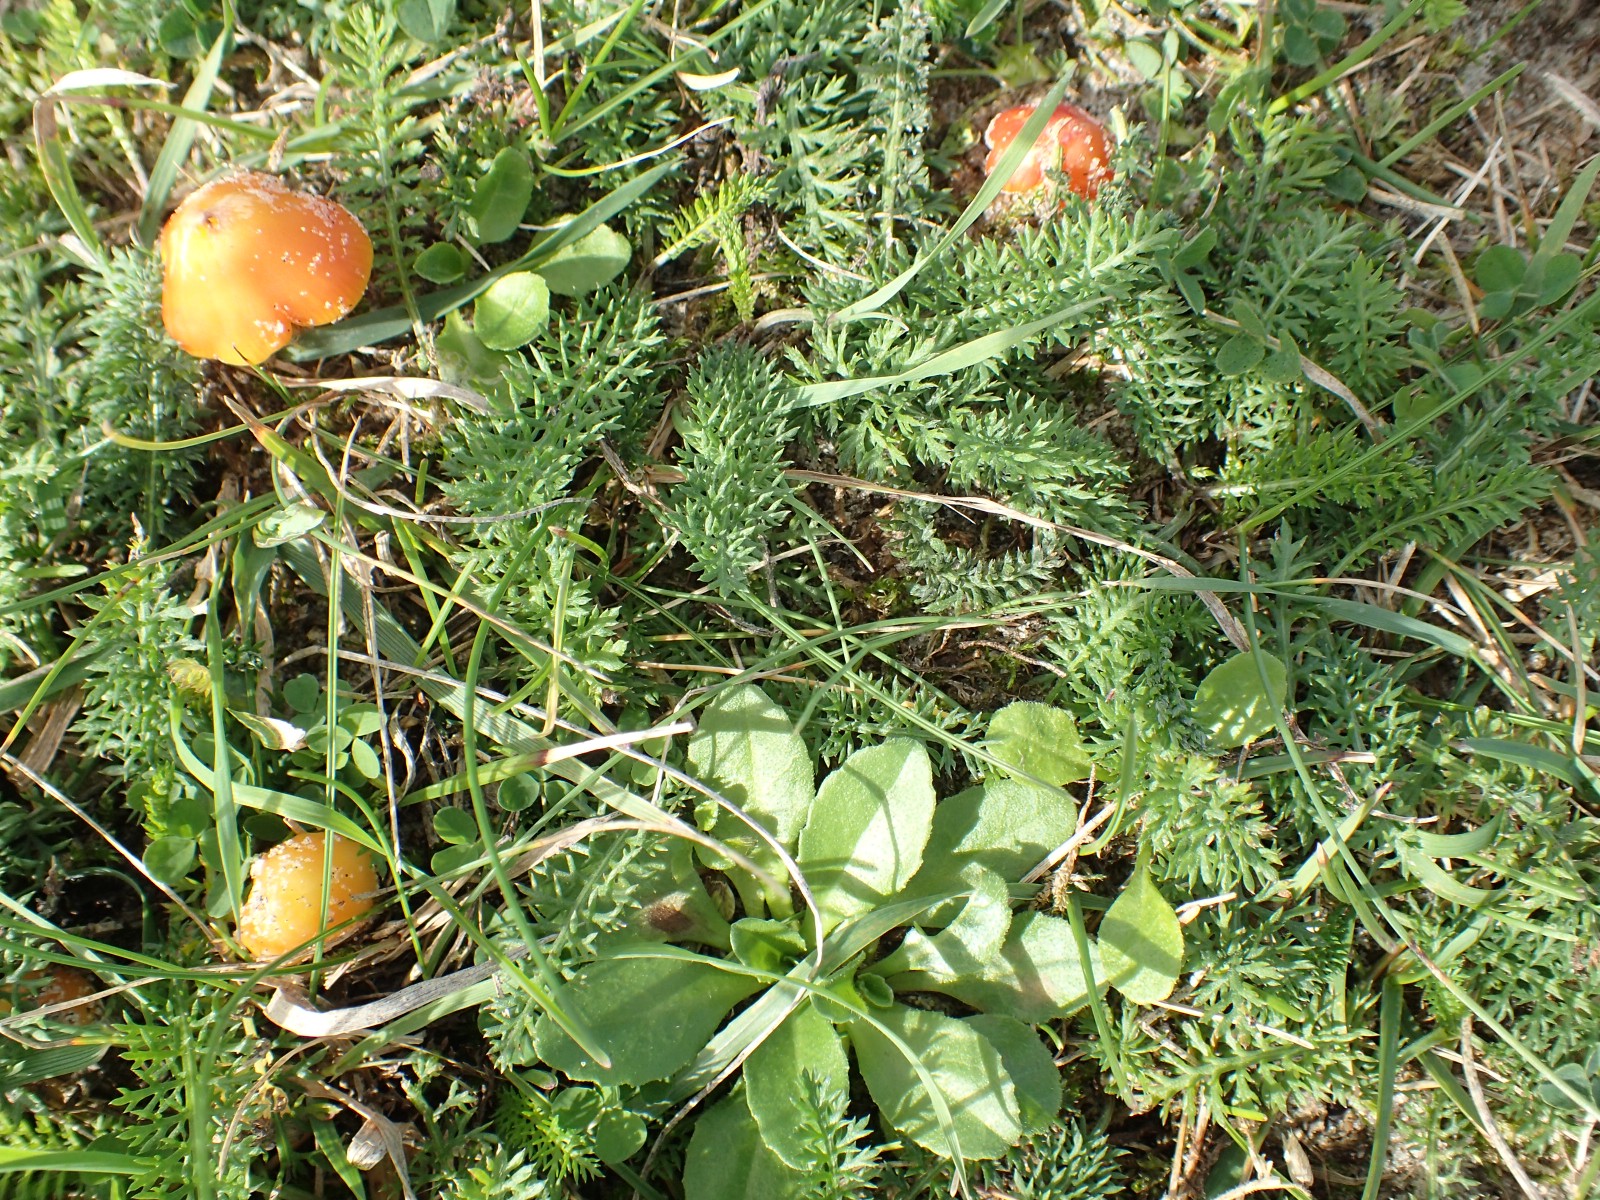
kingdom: Fungi
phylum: Basidiomycota
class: Agaricomycetes
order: Agaricales
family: Hygrophoraceae
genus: Hygrocybe
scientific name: Hygrocybe conicoides
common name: klit-vokshat
